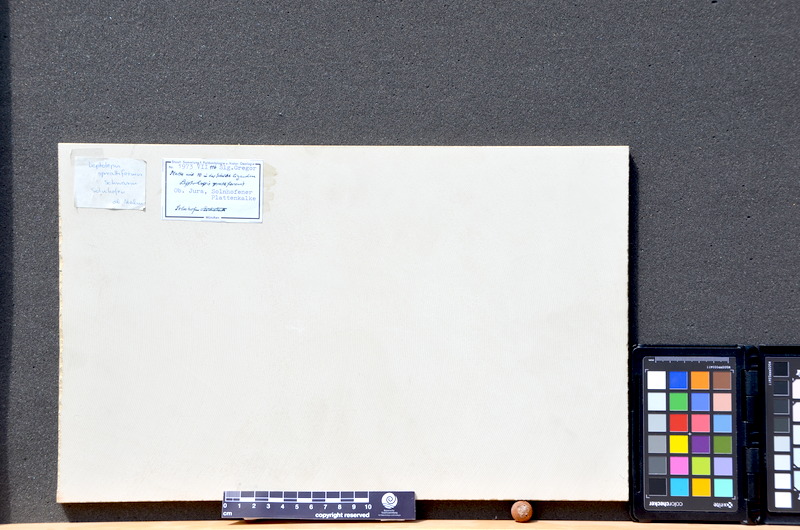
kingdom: Animalia
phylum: Chordata
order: Salmoniformes
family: Orthogonikleithridae
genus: Leptolepides
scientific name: Leptolepides sprattiformis
